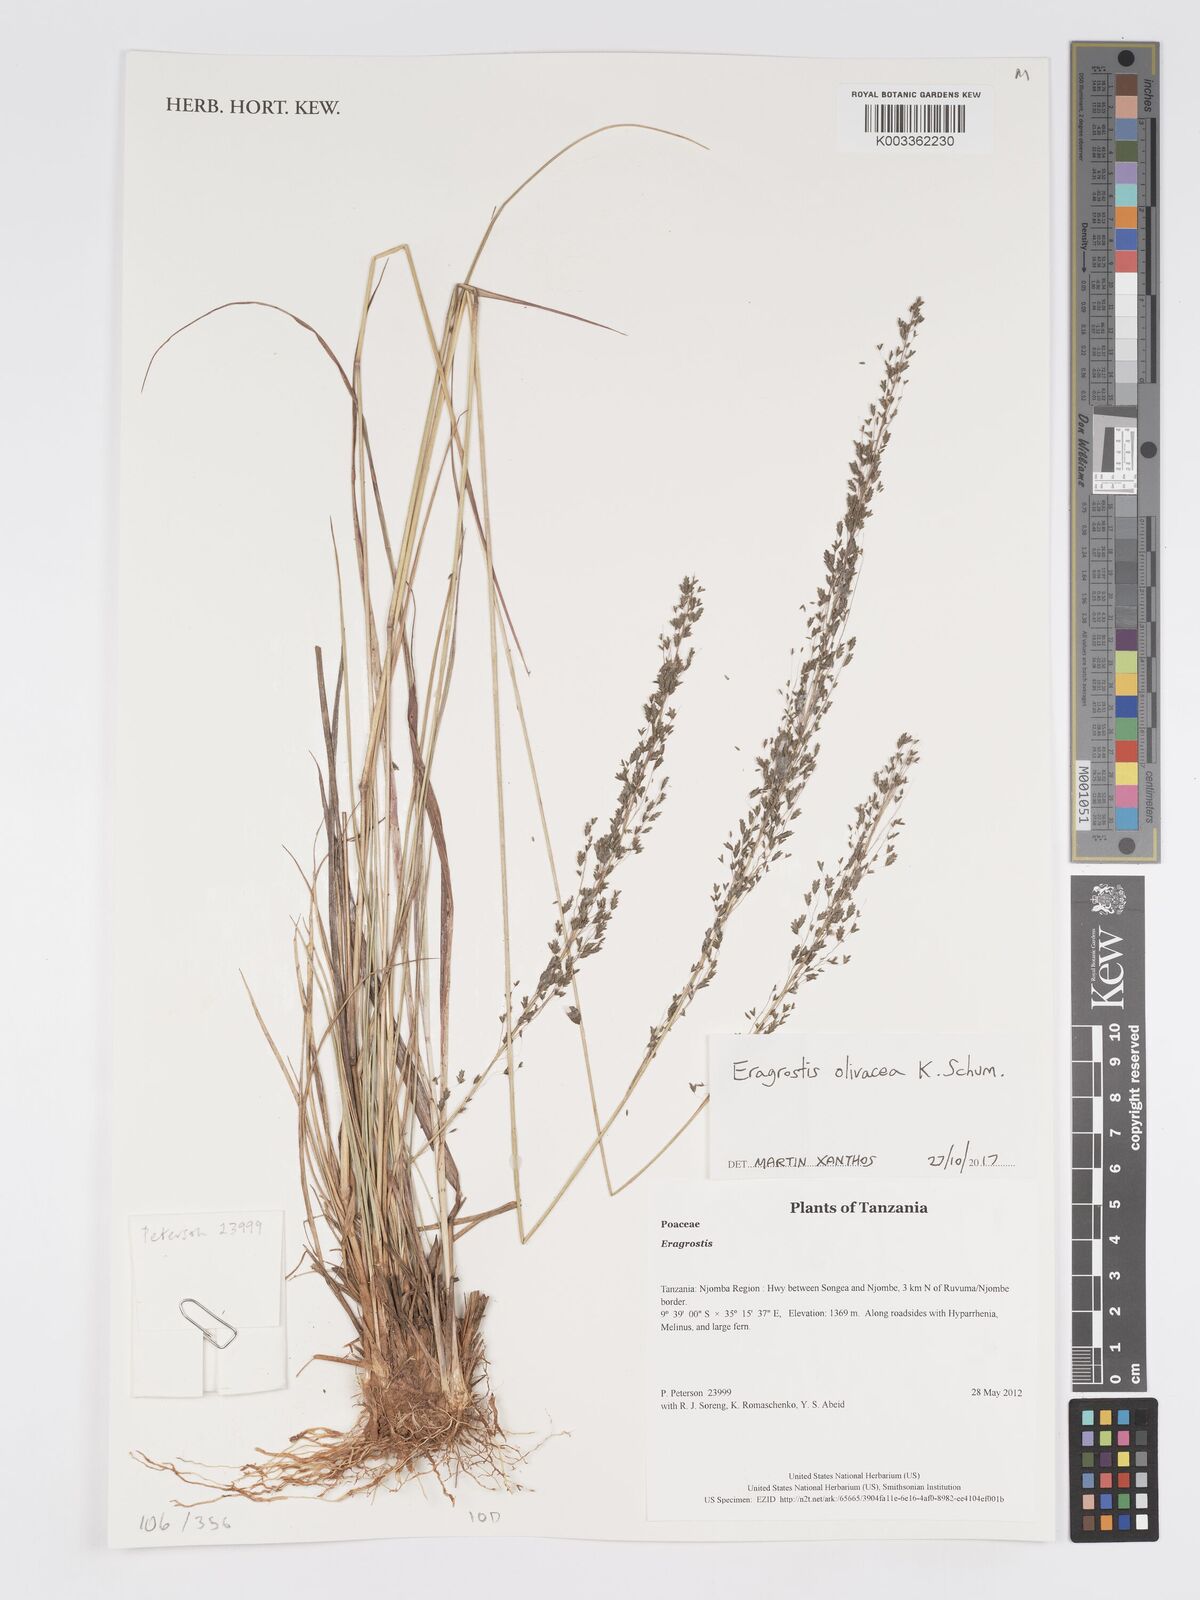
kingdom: Plantae
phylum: Tracheophyta
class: Liliopsida
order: Poales
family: Poaceae
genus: Eragrostis
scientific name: Eragrostis olivacea
